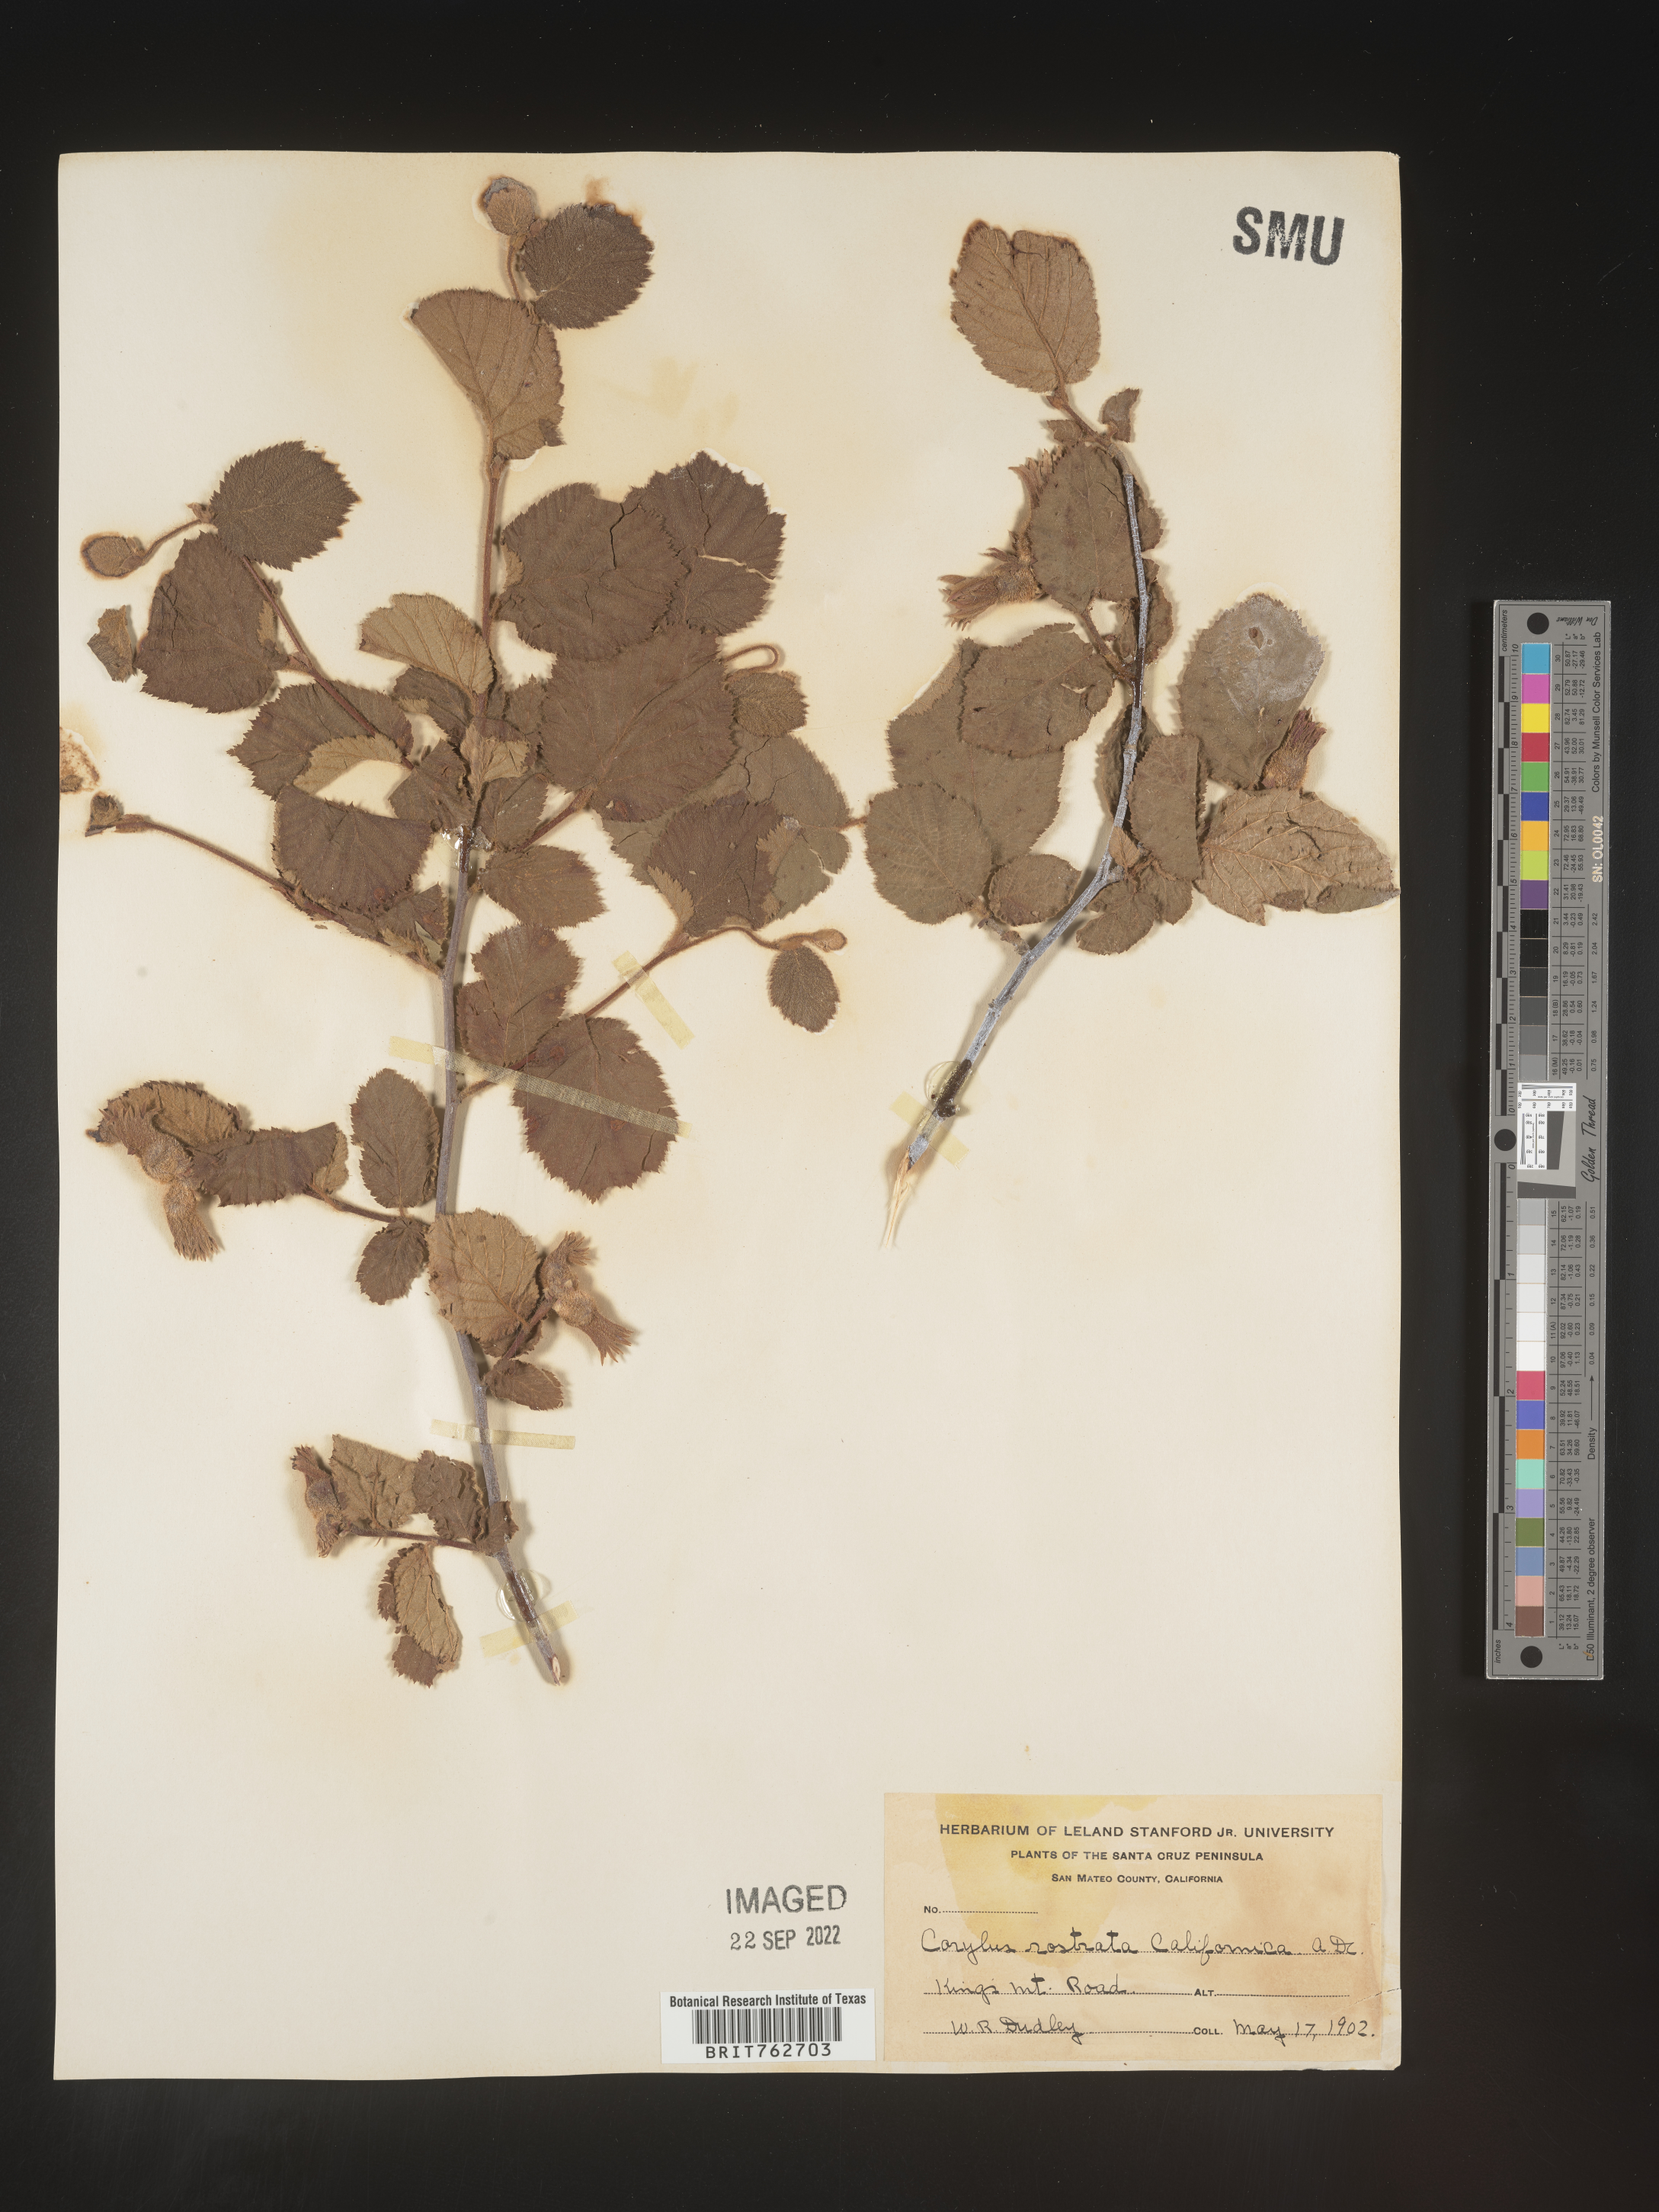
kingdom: Plantae
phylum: Tracheophyta
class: Magnoliopsida
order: Fagales
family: Betulaceae
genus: Corylus
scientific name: Corylus cornuta
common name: Beaked hazel
